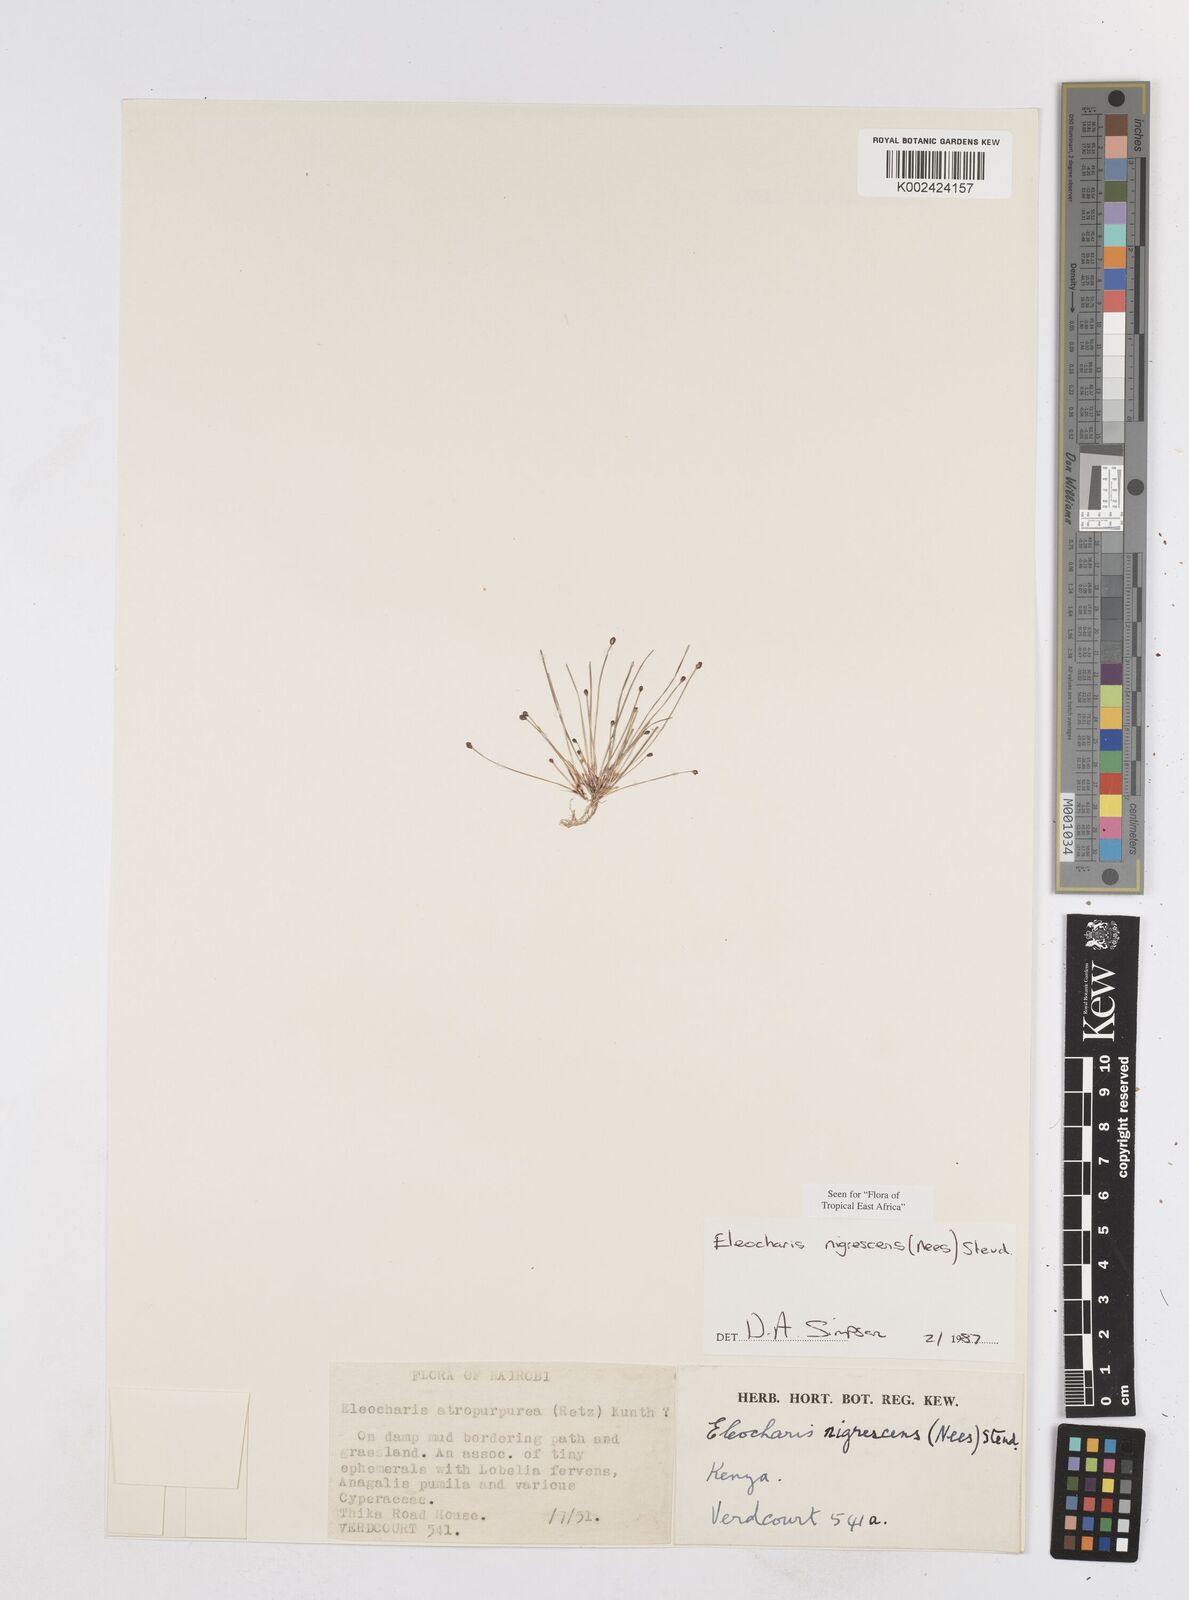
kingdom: Plantae
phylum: Tracheophyta
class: Liliopsida
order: Poales
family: Cyperaceae
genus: Eleocharis
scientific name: Eleocharis nigrescens
